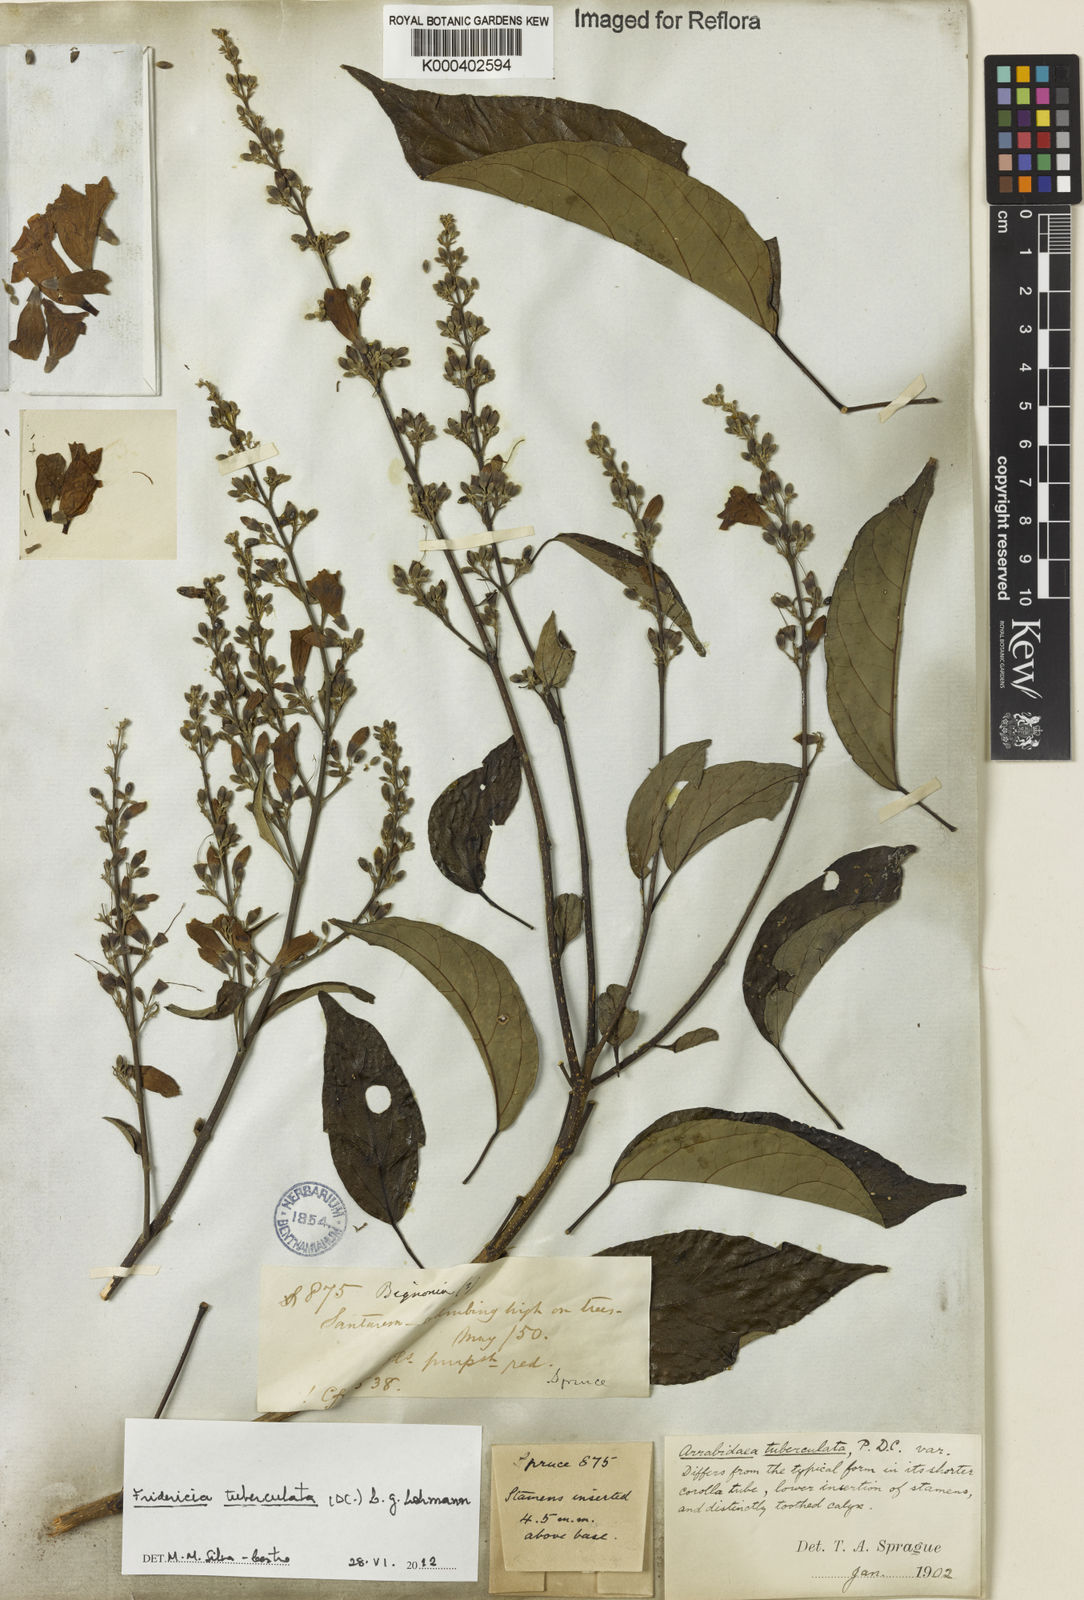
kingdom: Plantae
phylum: Tracheophyta
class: Magnoliopsida
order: Lamiales
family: Bignoniaceae
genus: Fridericia
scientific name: Fridericia tuberculata
